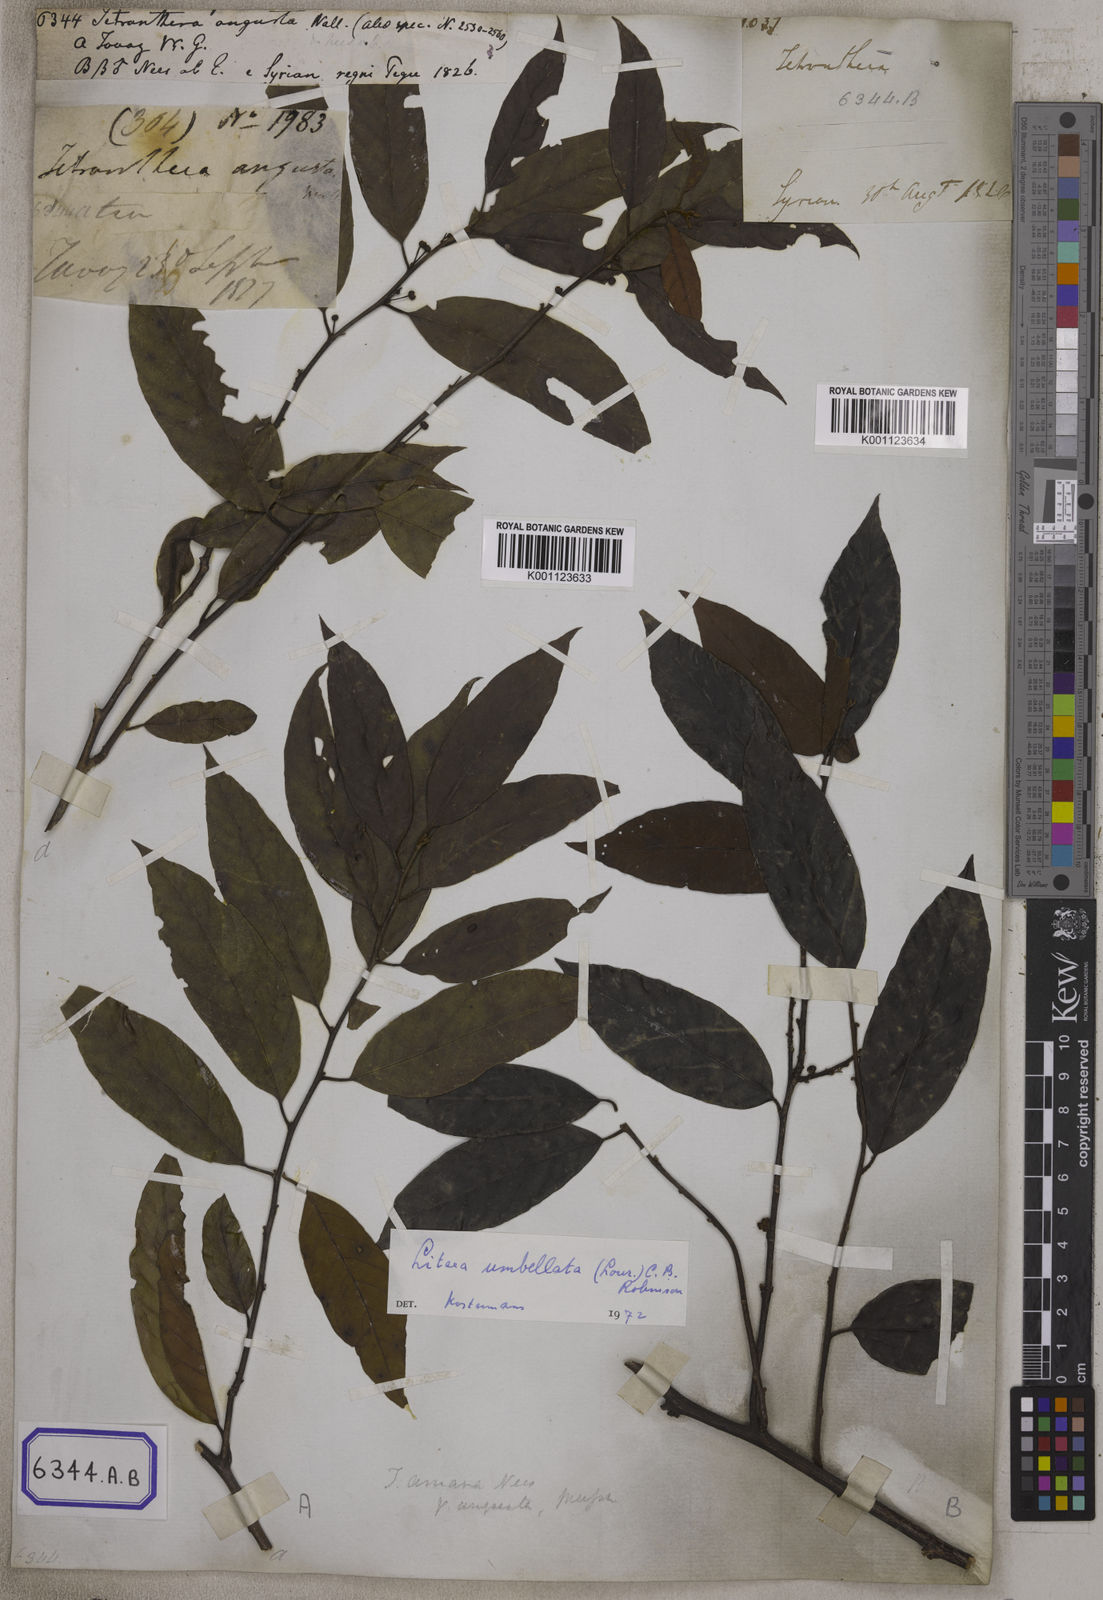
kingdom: Plantae
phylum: Tracheophyta
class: Magnoliopsida
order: Laurales
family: Lauraceae
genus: Litsea
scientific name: Litsea umbellata
